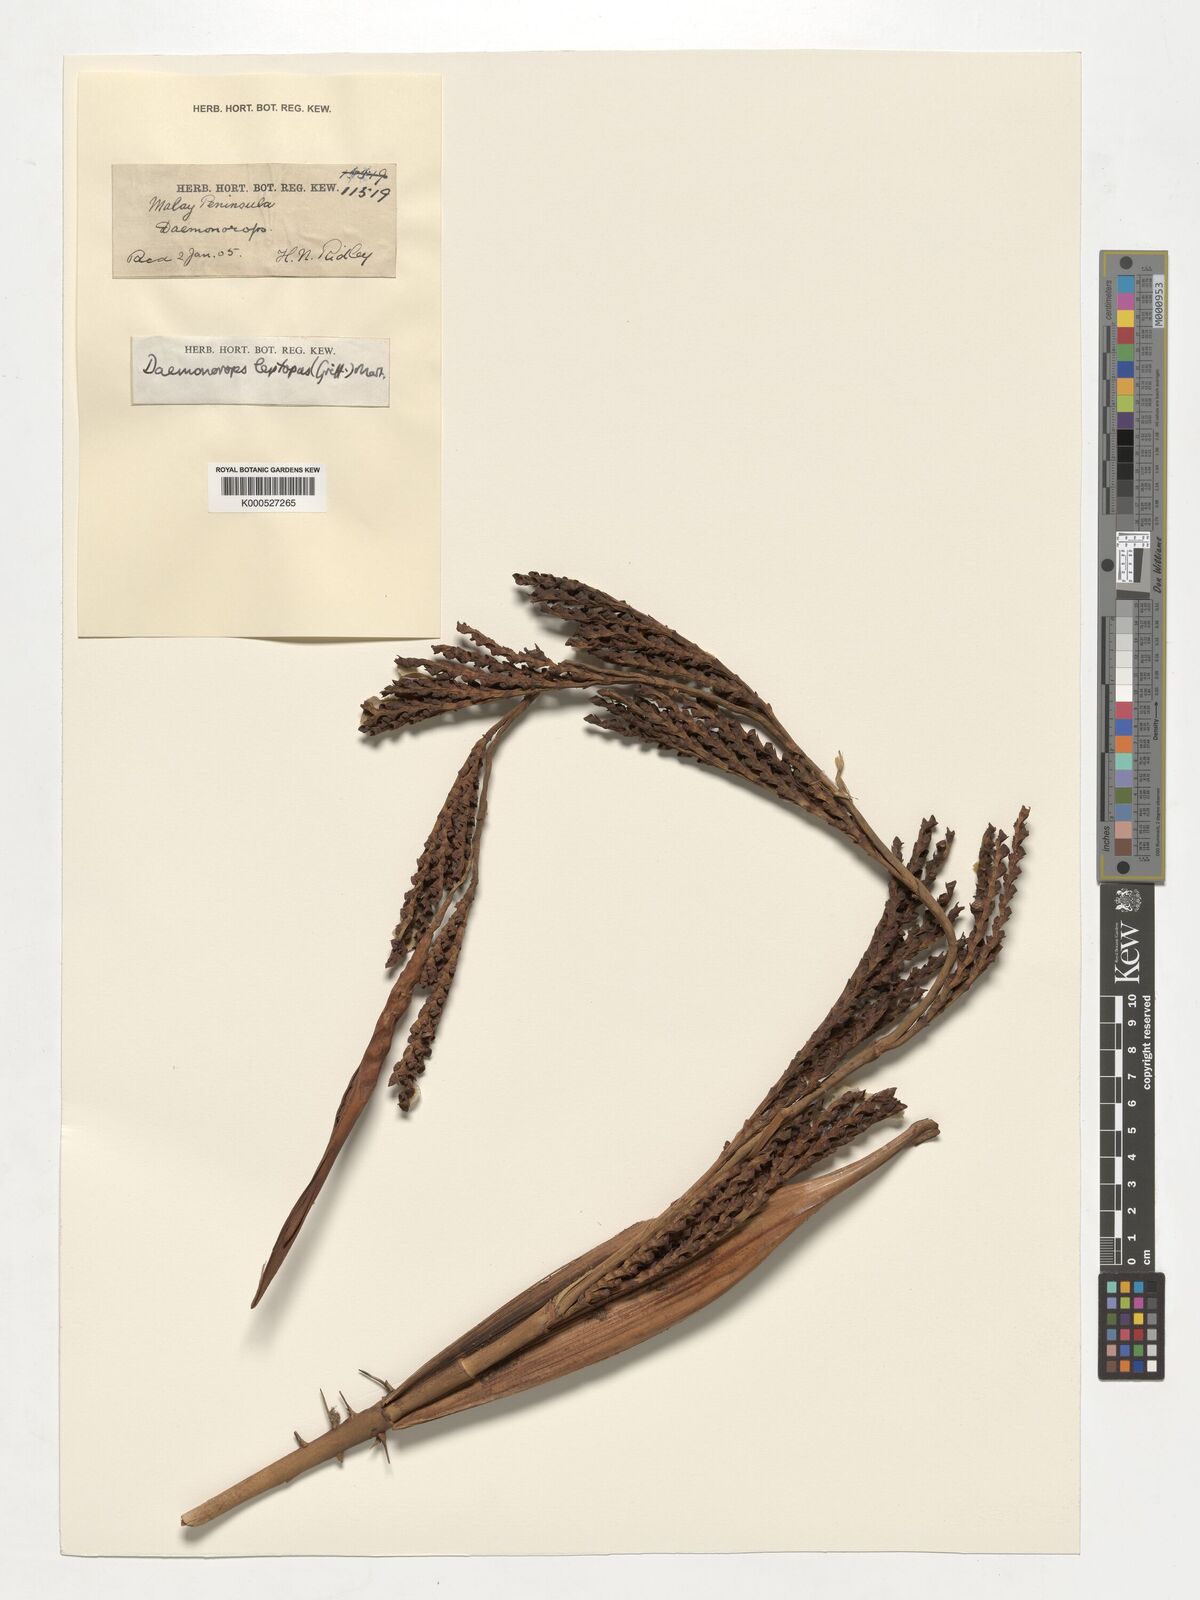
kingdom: Plantae
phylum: Tracheophyta
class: Liliopsida
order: Arecales
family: Arecaceae
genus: Calamus
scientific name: Calamus leptopus
